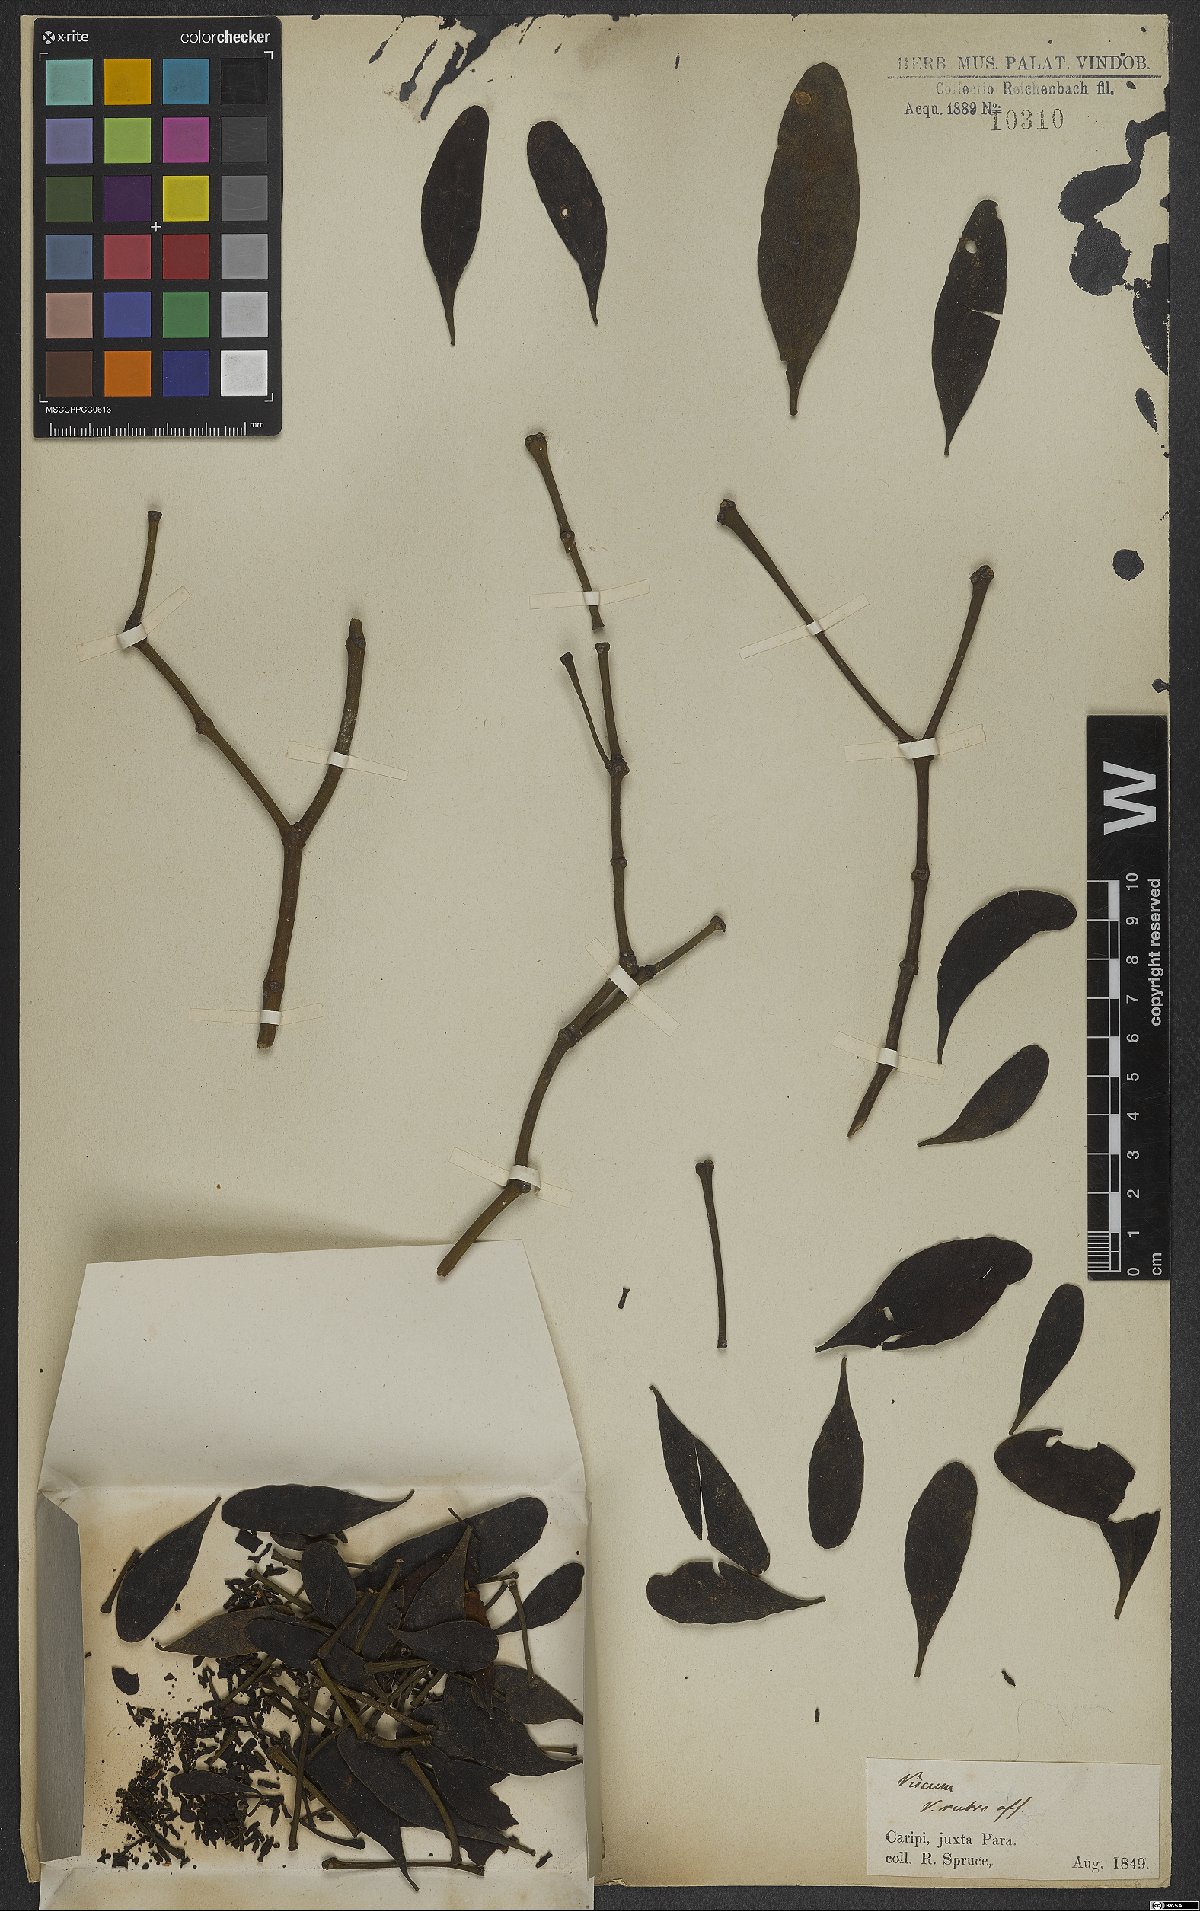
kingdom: Plantae
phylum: Tracheophyta
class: Magnoliopsida
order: Santalales
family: Viscaceae
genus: Viscum
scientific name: Viscum
